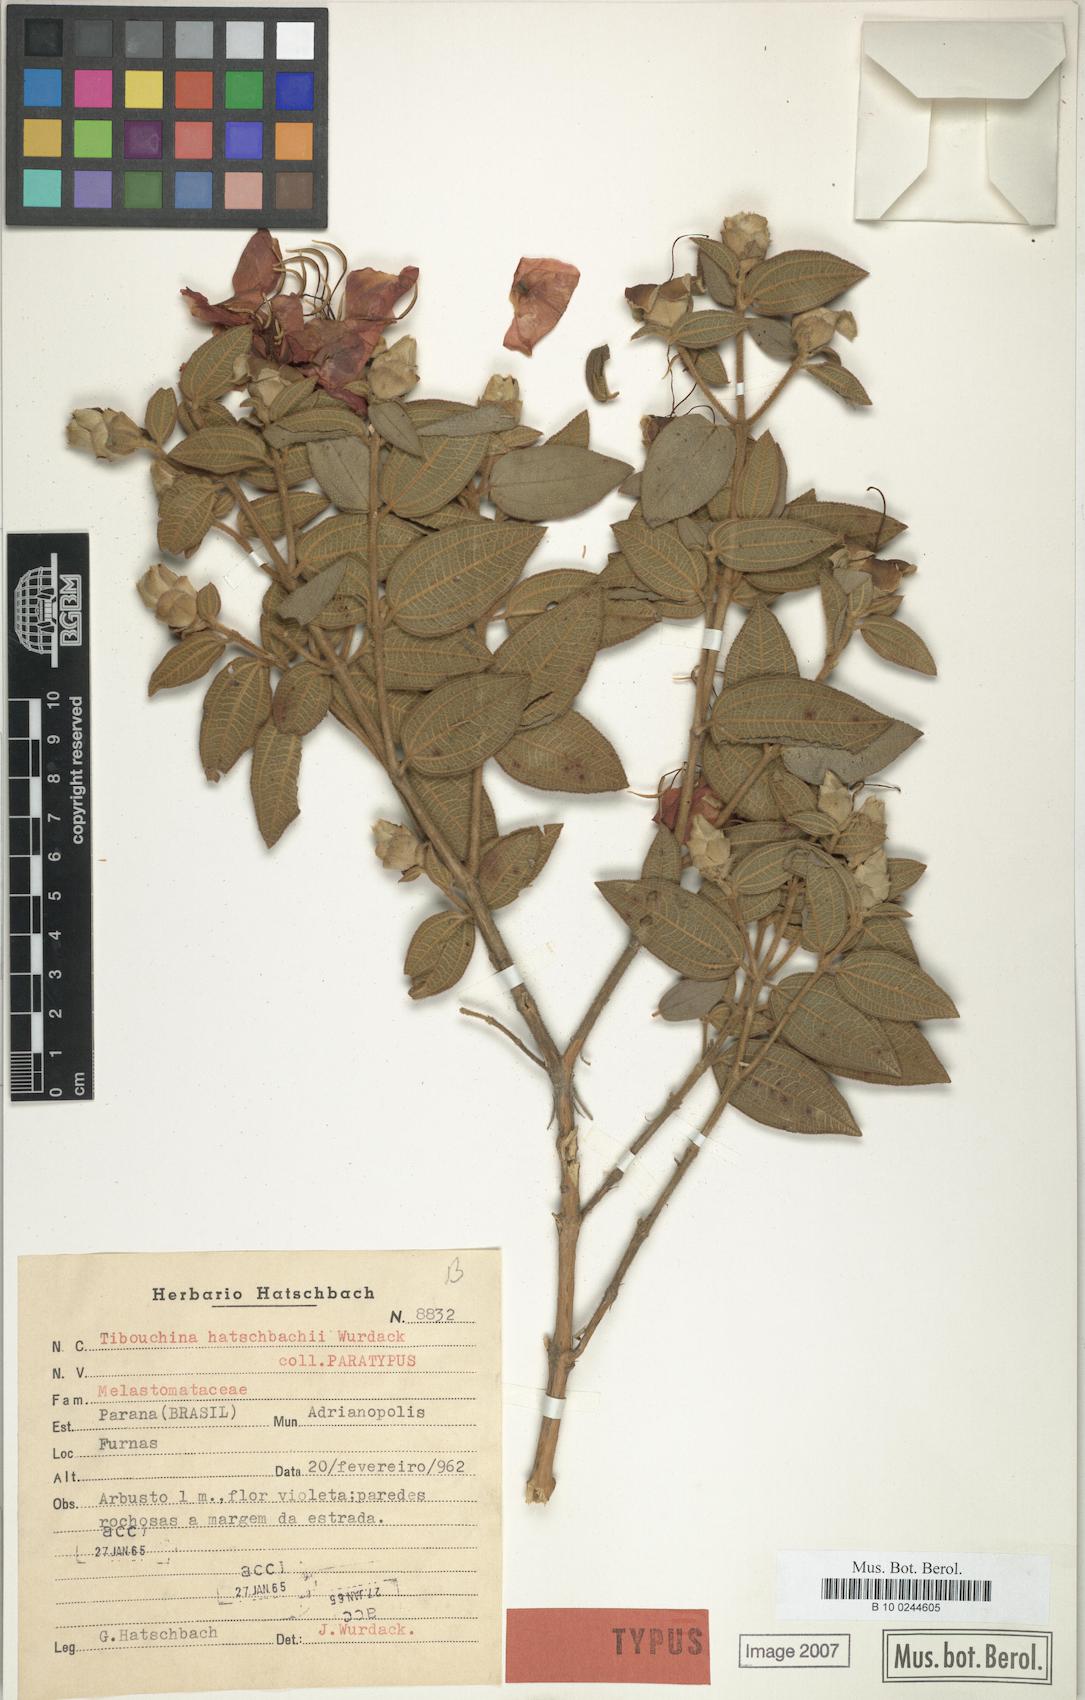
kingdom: Plantae
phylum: Tracheophyta
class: Magnoliopsida
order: Myrtales
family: Melastomataceae
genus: Pleroma
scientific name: Pleroma hatschbachii
